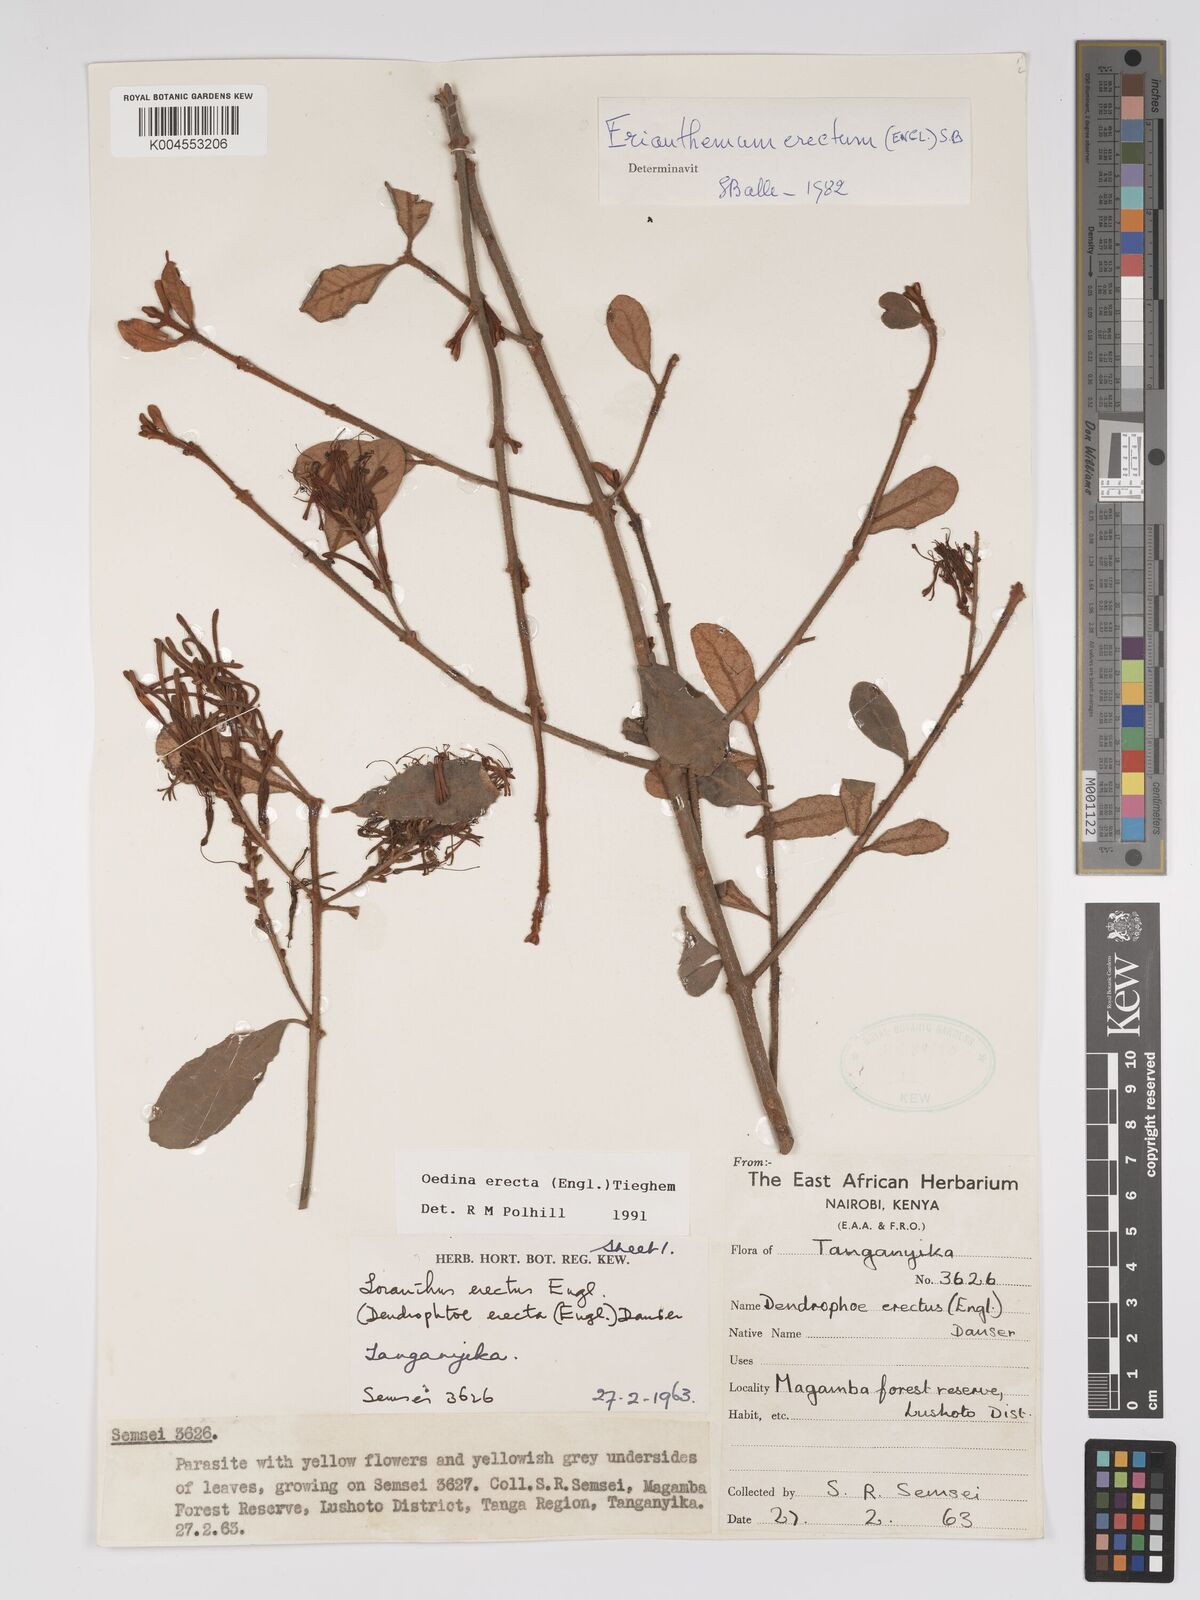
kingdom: Plantae
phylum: Tracheophyta
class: Magnoliopsida
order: Santalales
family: Loranthaceae
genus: Oedina
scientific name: Oedina erecta
